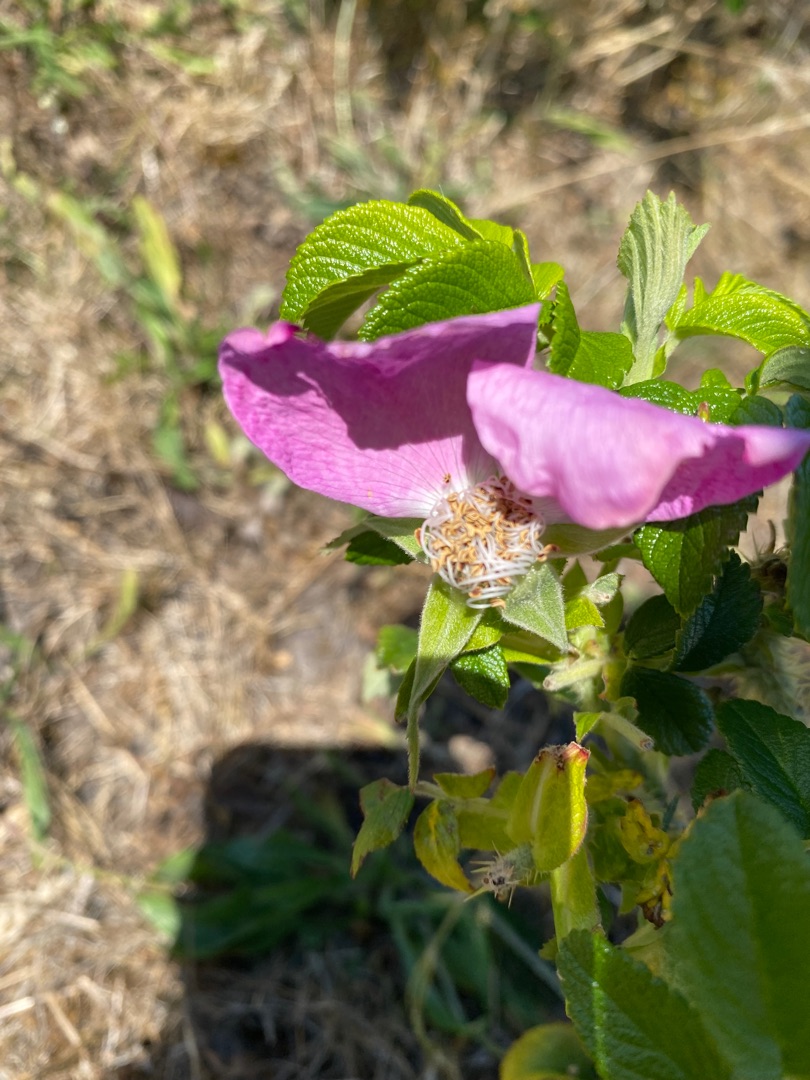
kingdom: Plantae
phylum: Tracheophyta
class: Magnoliopsida
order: Rosales
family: Rosaceae
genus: Rosa
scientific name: Rosa rugosa
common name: Rynket rose
